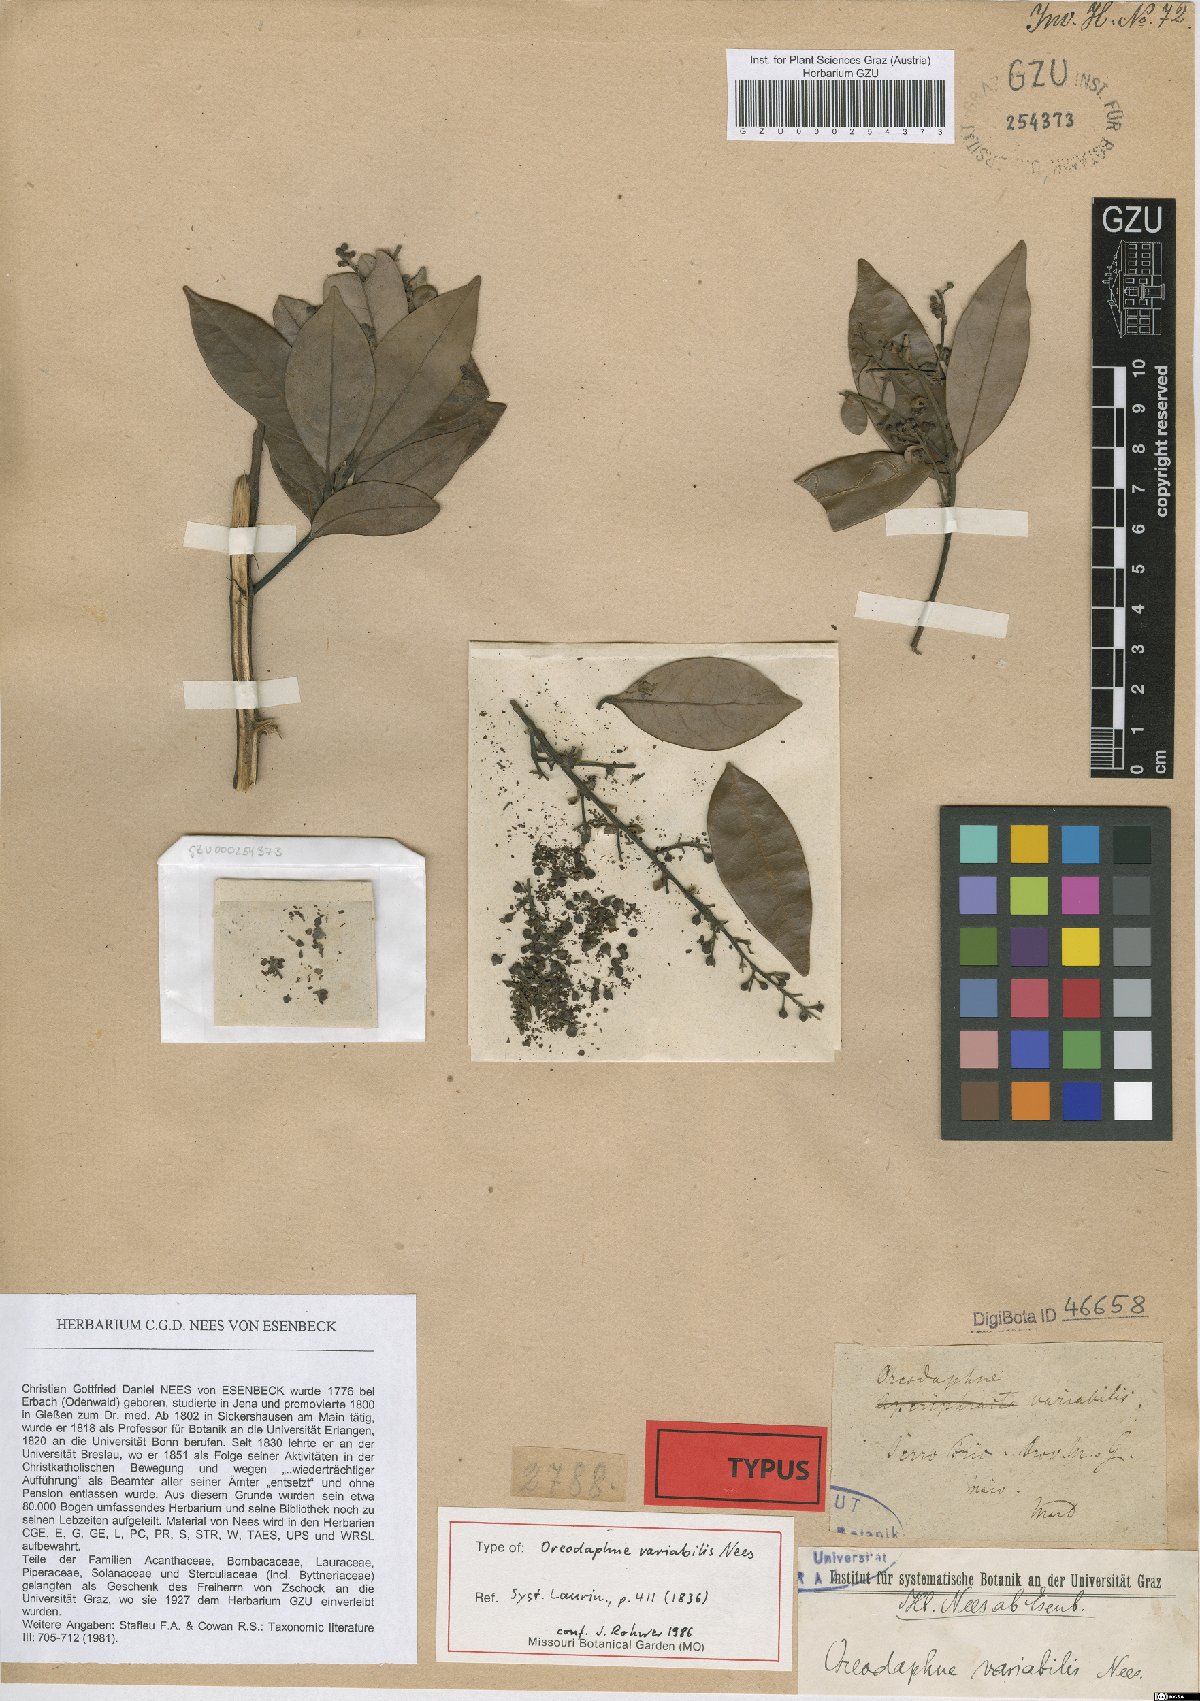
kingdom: Plantae
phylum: Tracheophyta
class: Magnoliopsida
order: Laurales
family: Lauraceae
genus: Ocotea
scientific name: Ocotea lancifolia
